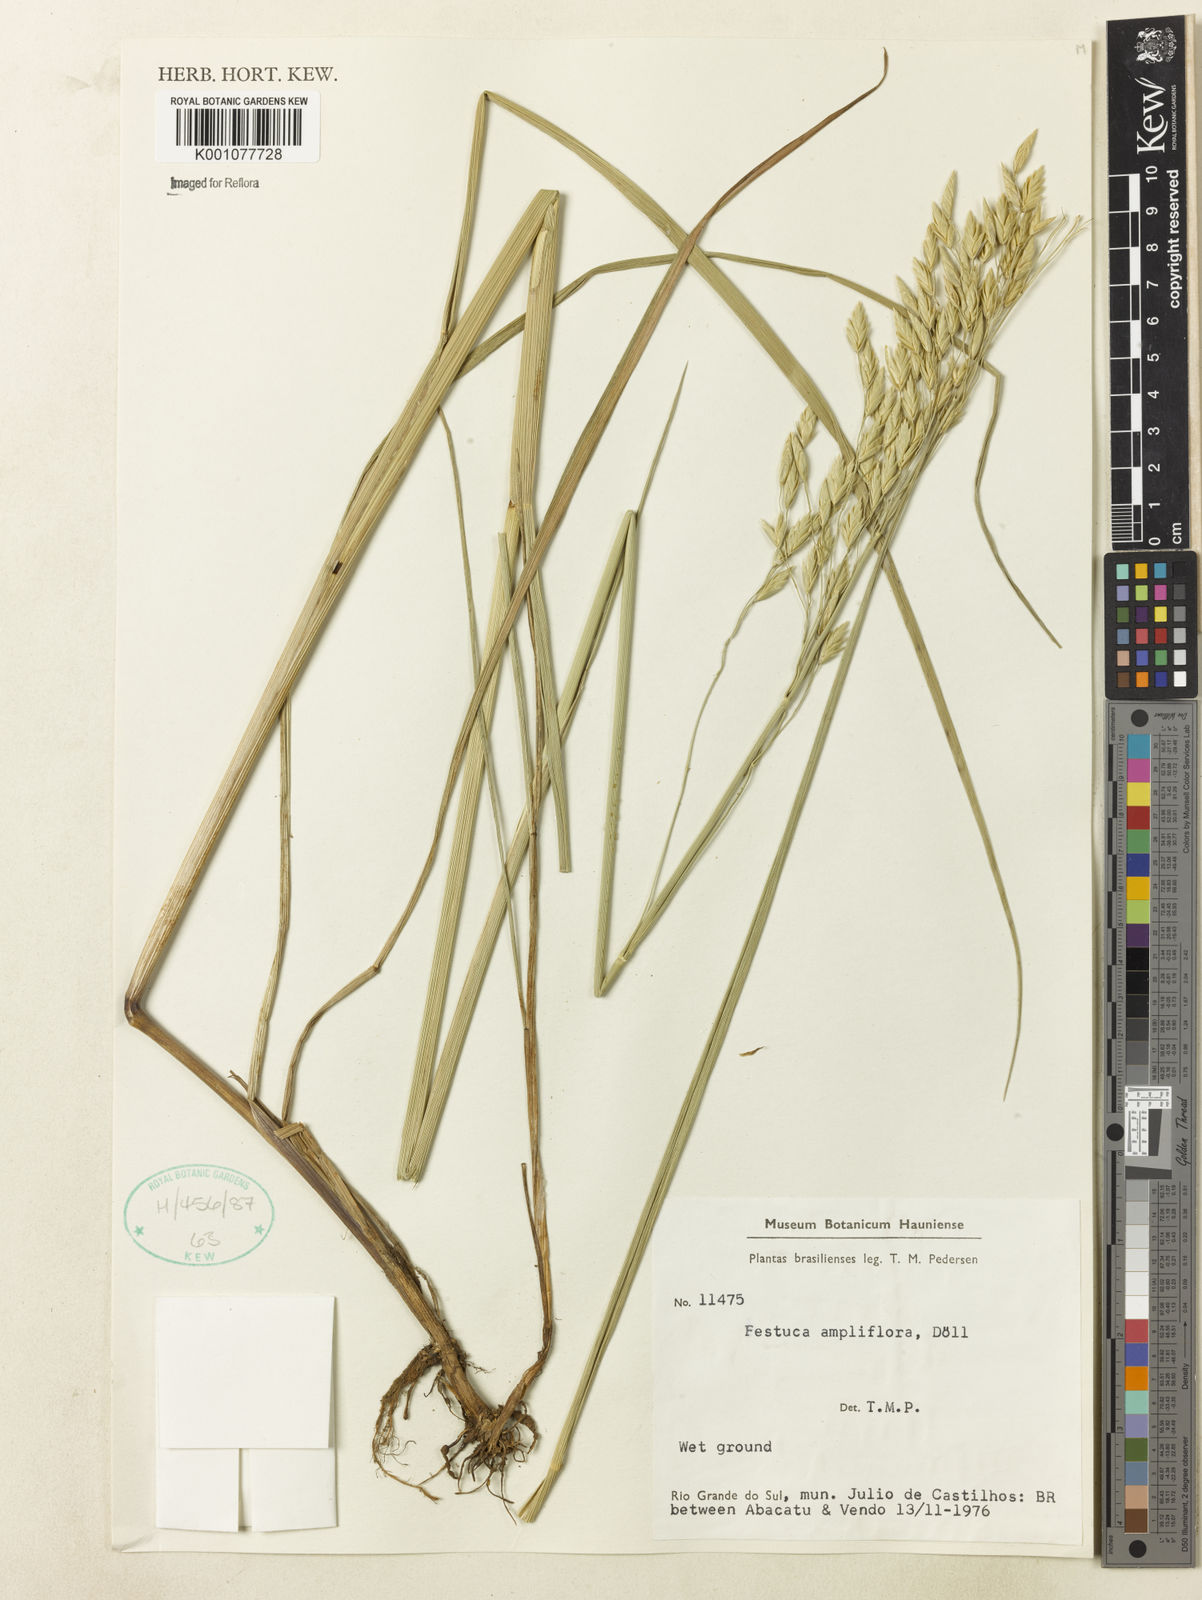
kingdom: Plantae
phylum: Tracheophyta
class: Liliopsida
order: Poales
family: Poaceae
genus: Festuca
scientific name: Festuca fimbriata
